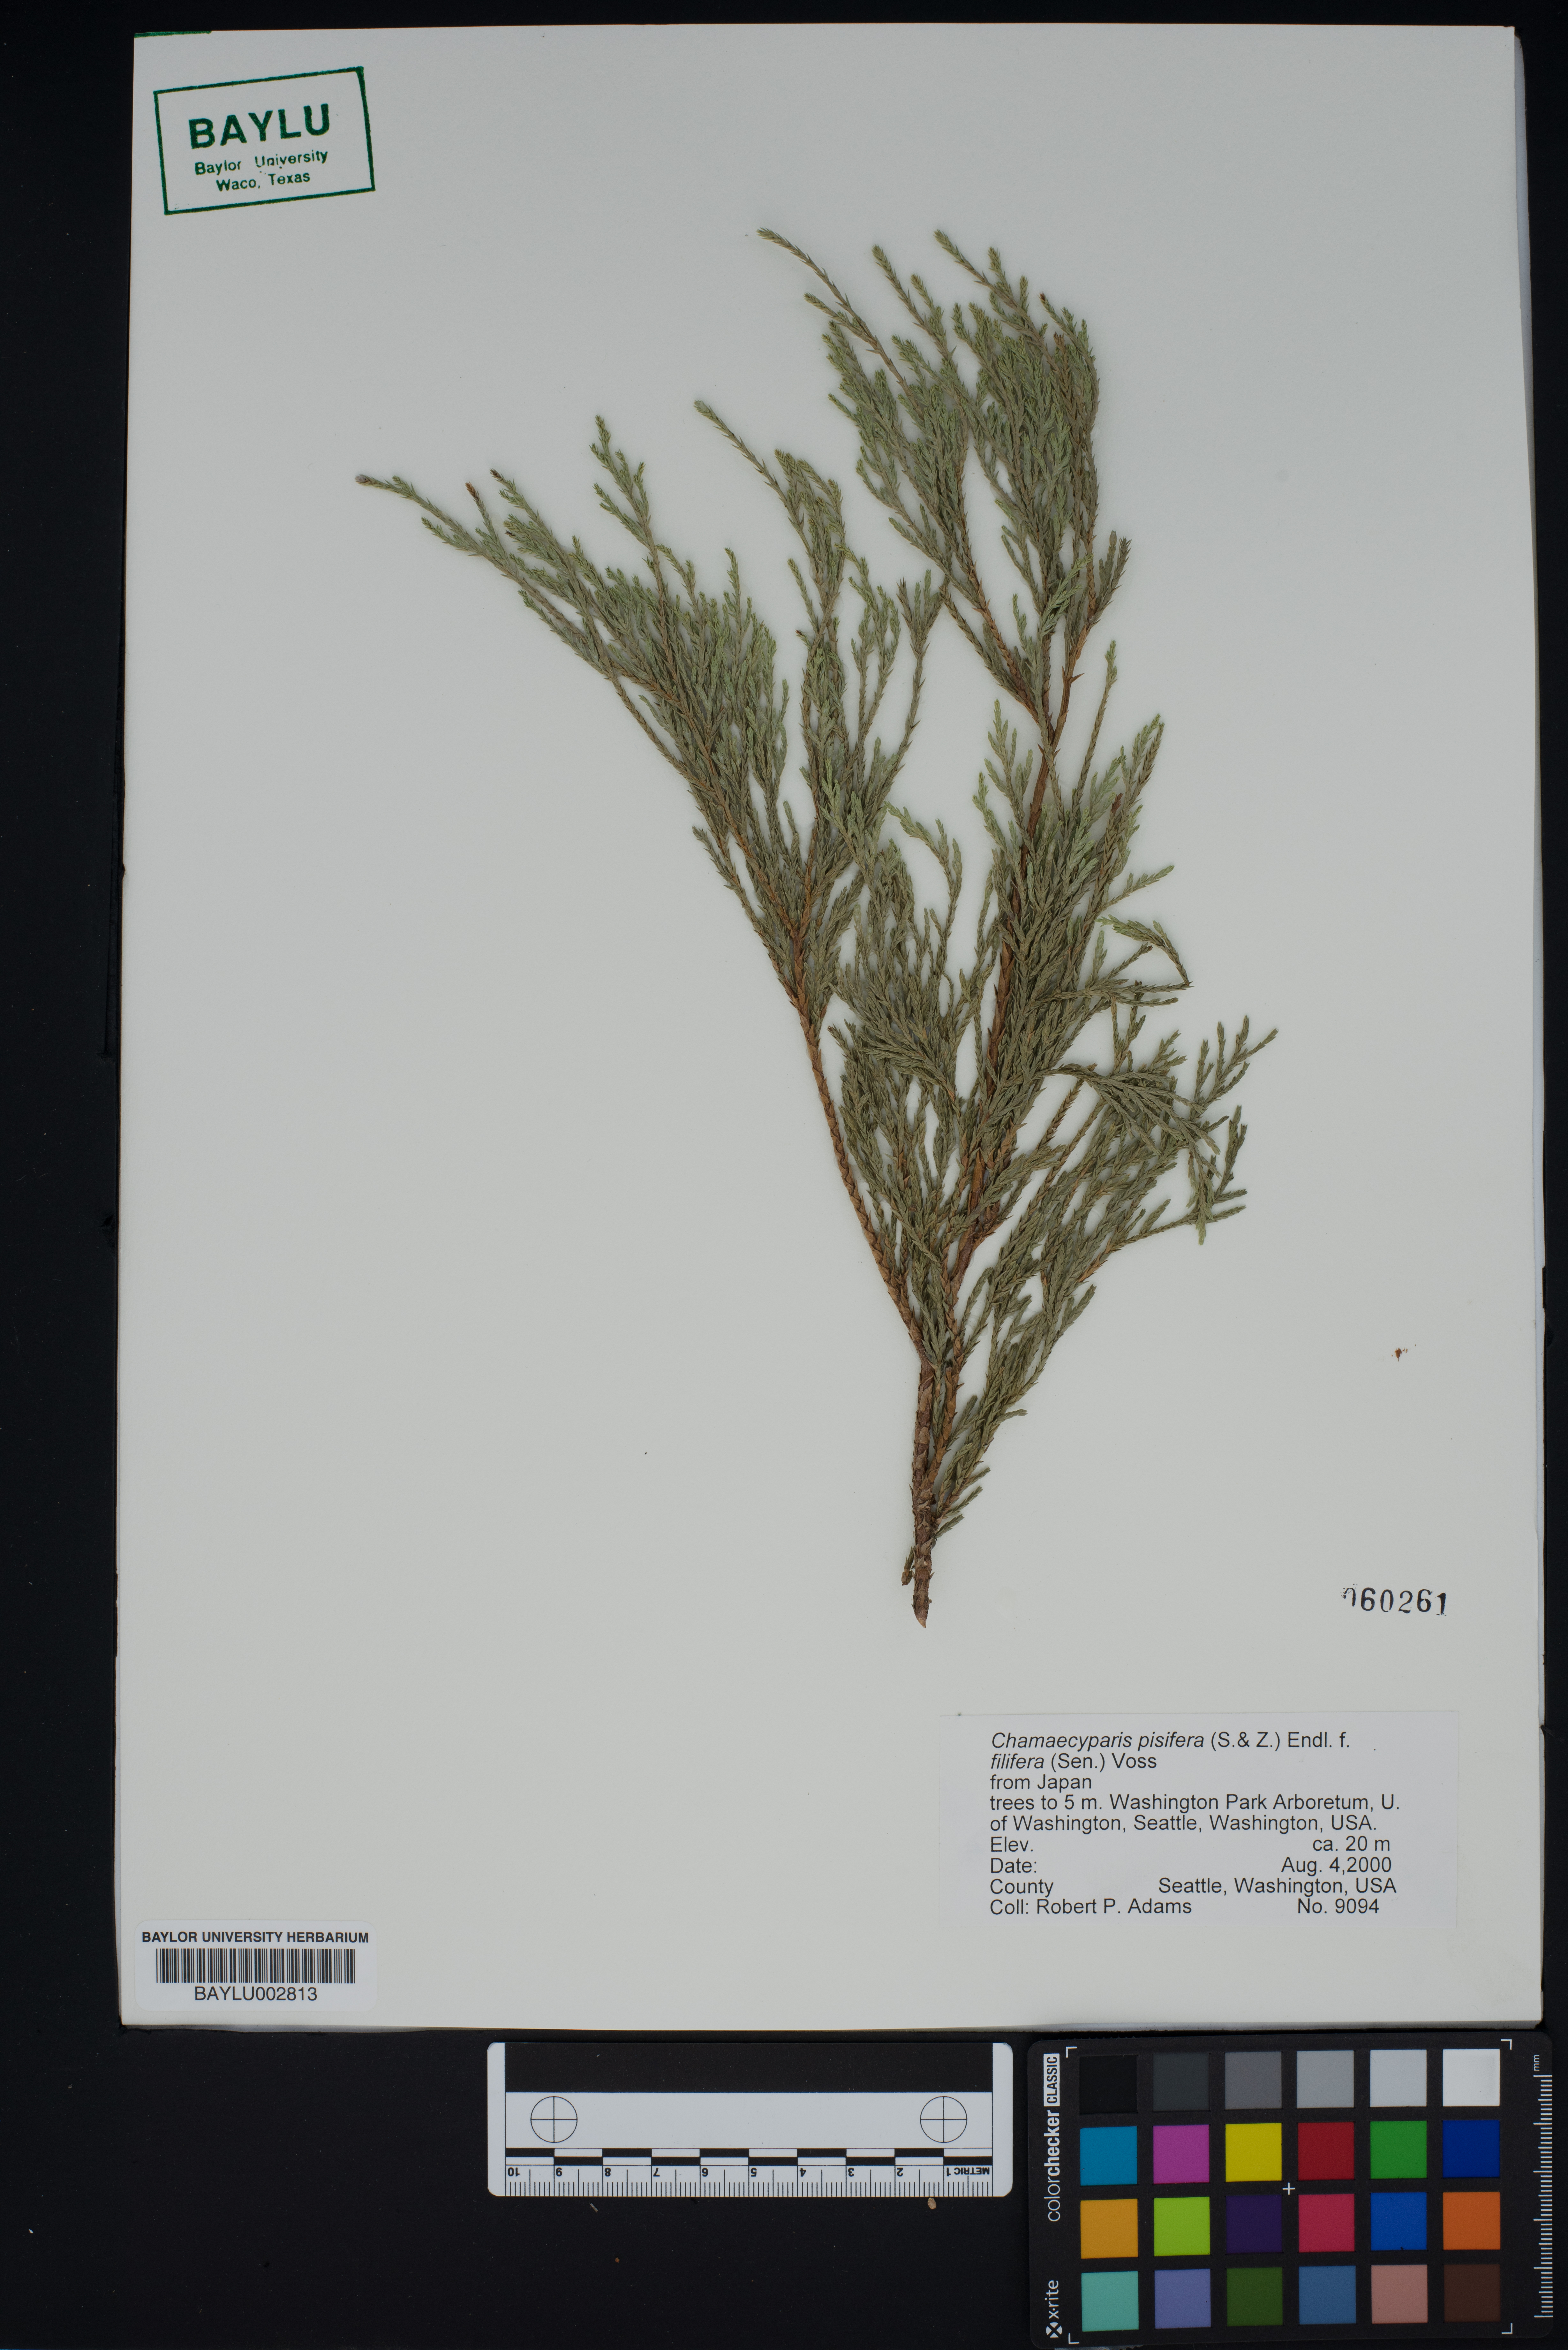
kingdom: Plantae
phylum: Tracheophyta
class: Pinopsida
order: Pinales
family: Cupressaceae
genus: Chamaecyparis
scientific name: Chamaecyparis pisifera
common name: Sawara cypress
